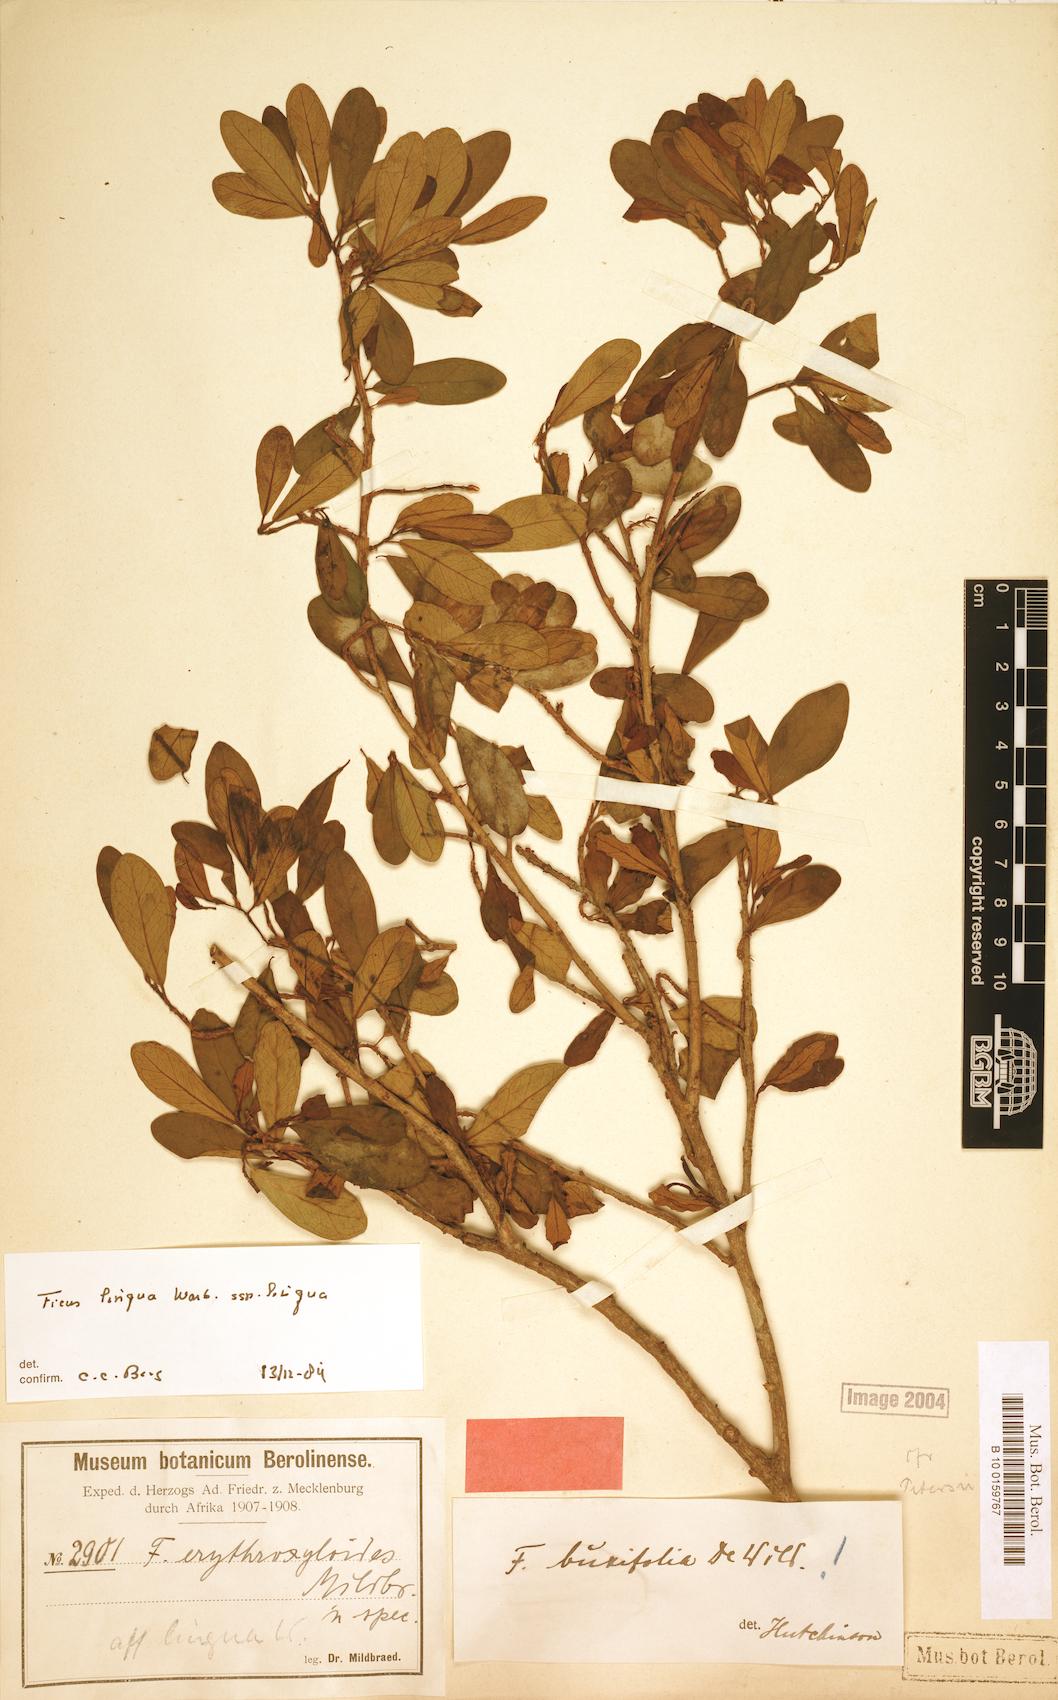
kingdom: Plantae
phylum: Tracheophyta
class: Magnoliopsida
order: Rosales
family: Moraceae
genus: Ficus
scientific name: Ficus lingua
